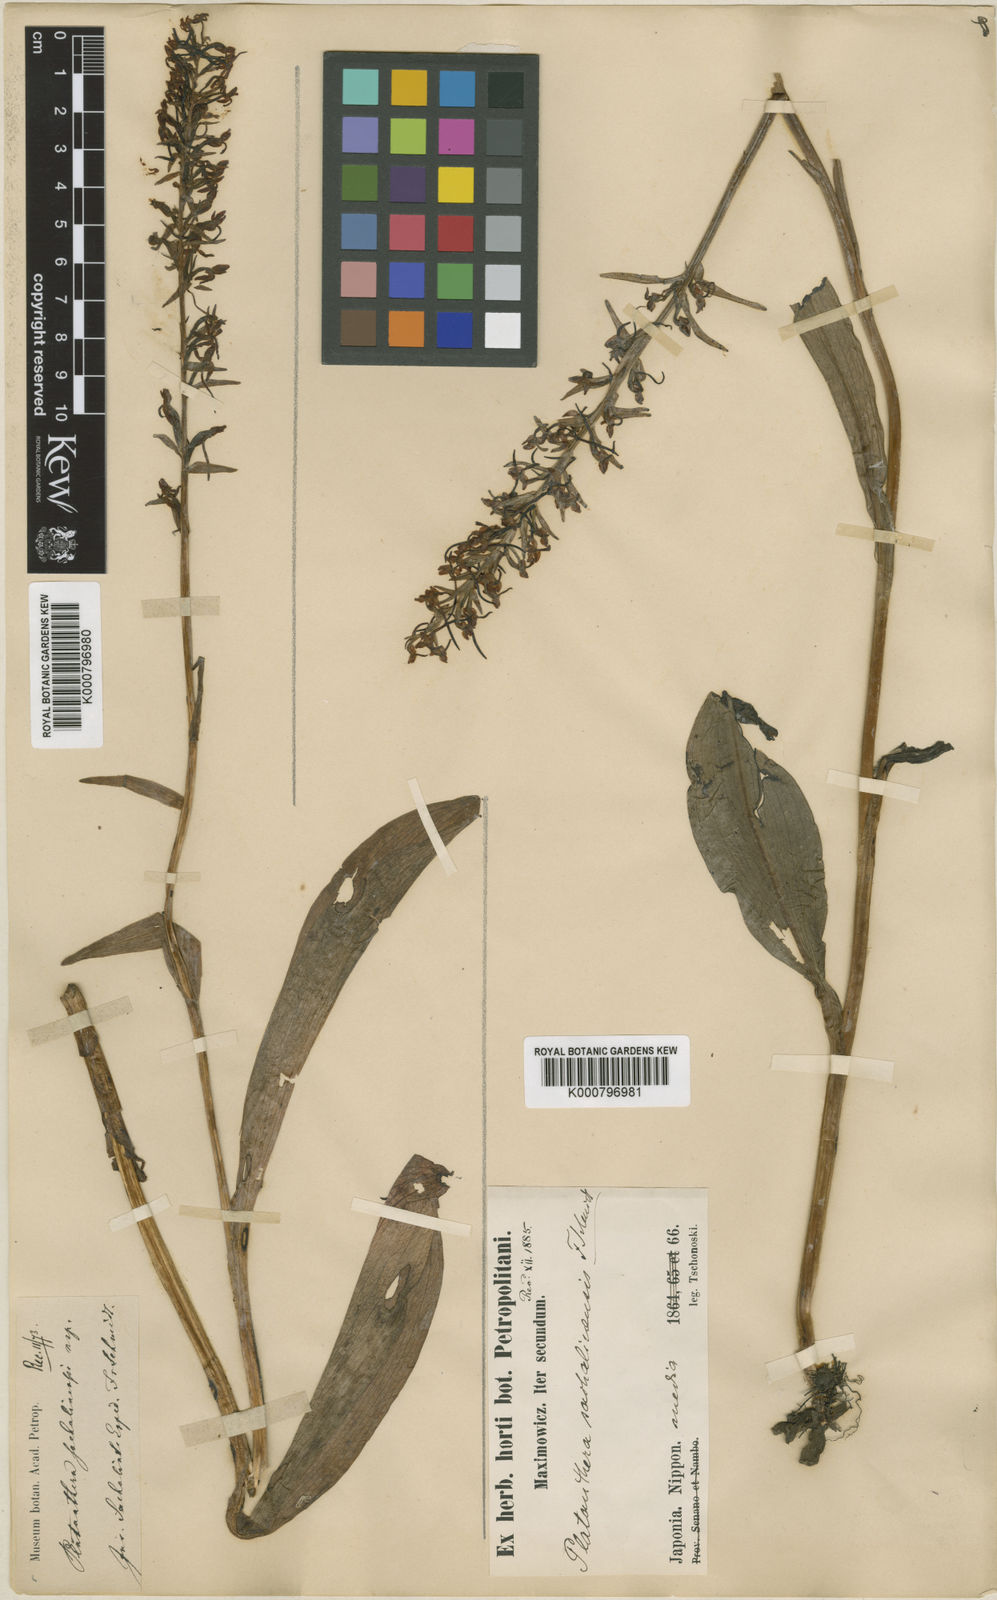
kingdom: Plantae
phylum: Tracheophyta
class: Liliopsida
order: Asparagales
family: Orchidaceae
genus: Platanthera
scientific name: Platanthera sachalinensis
